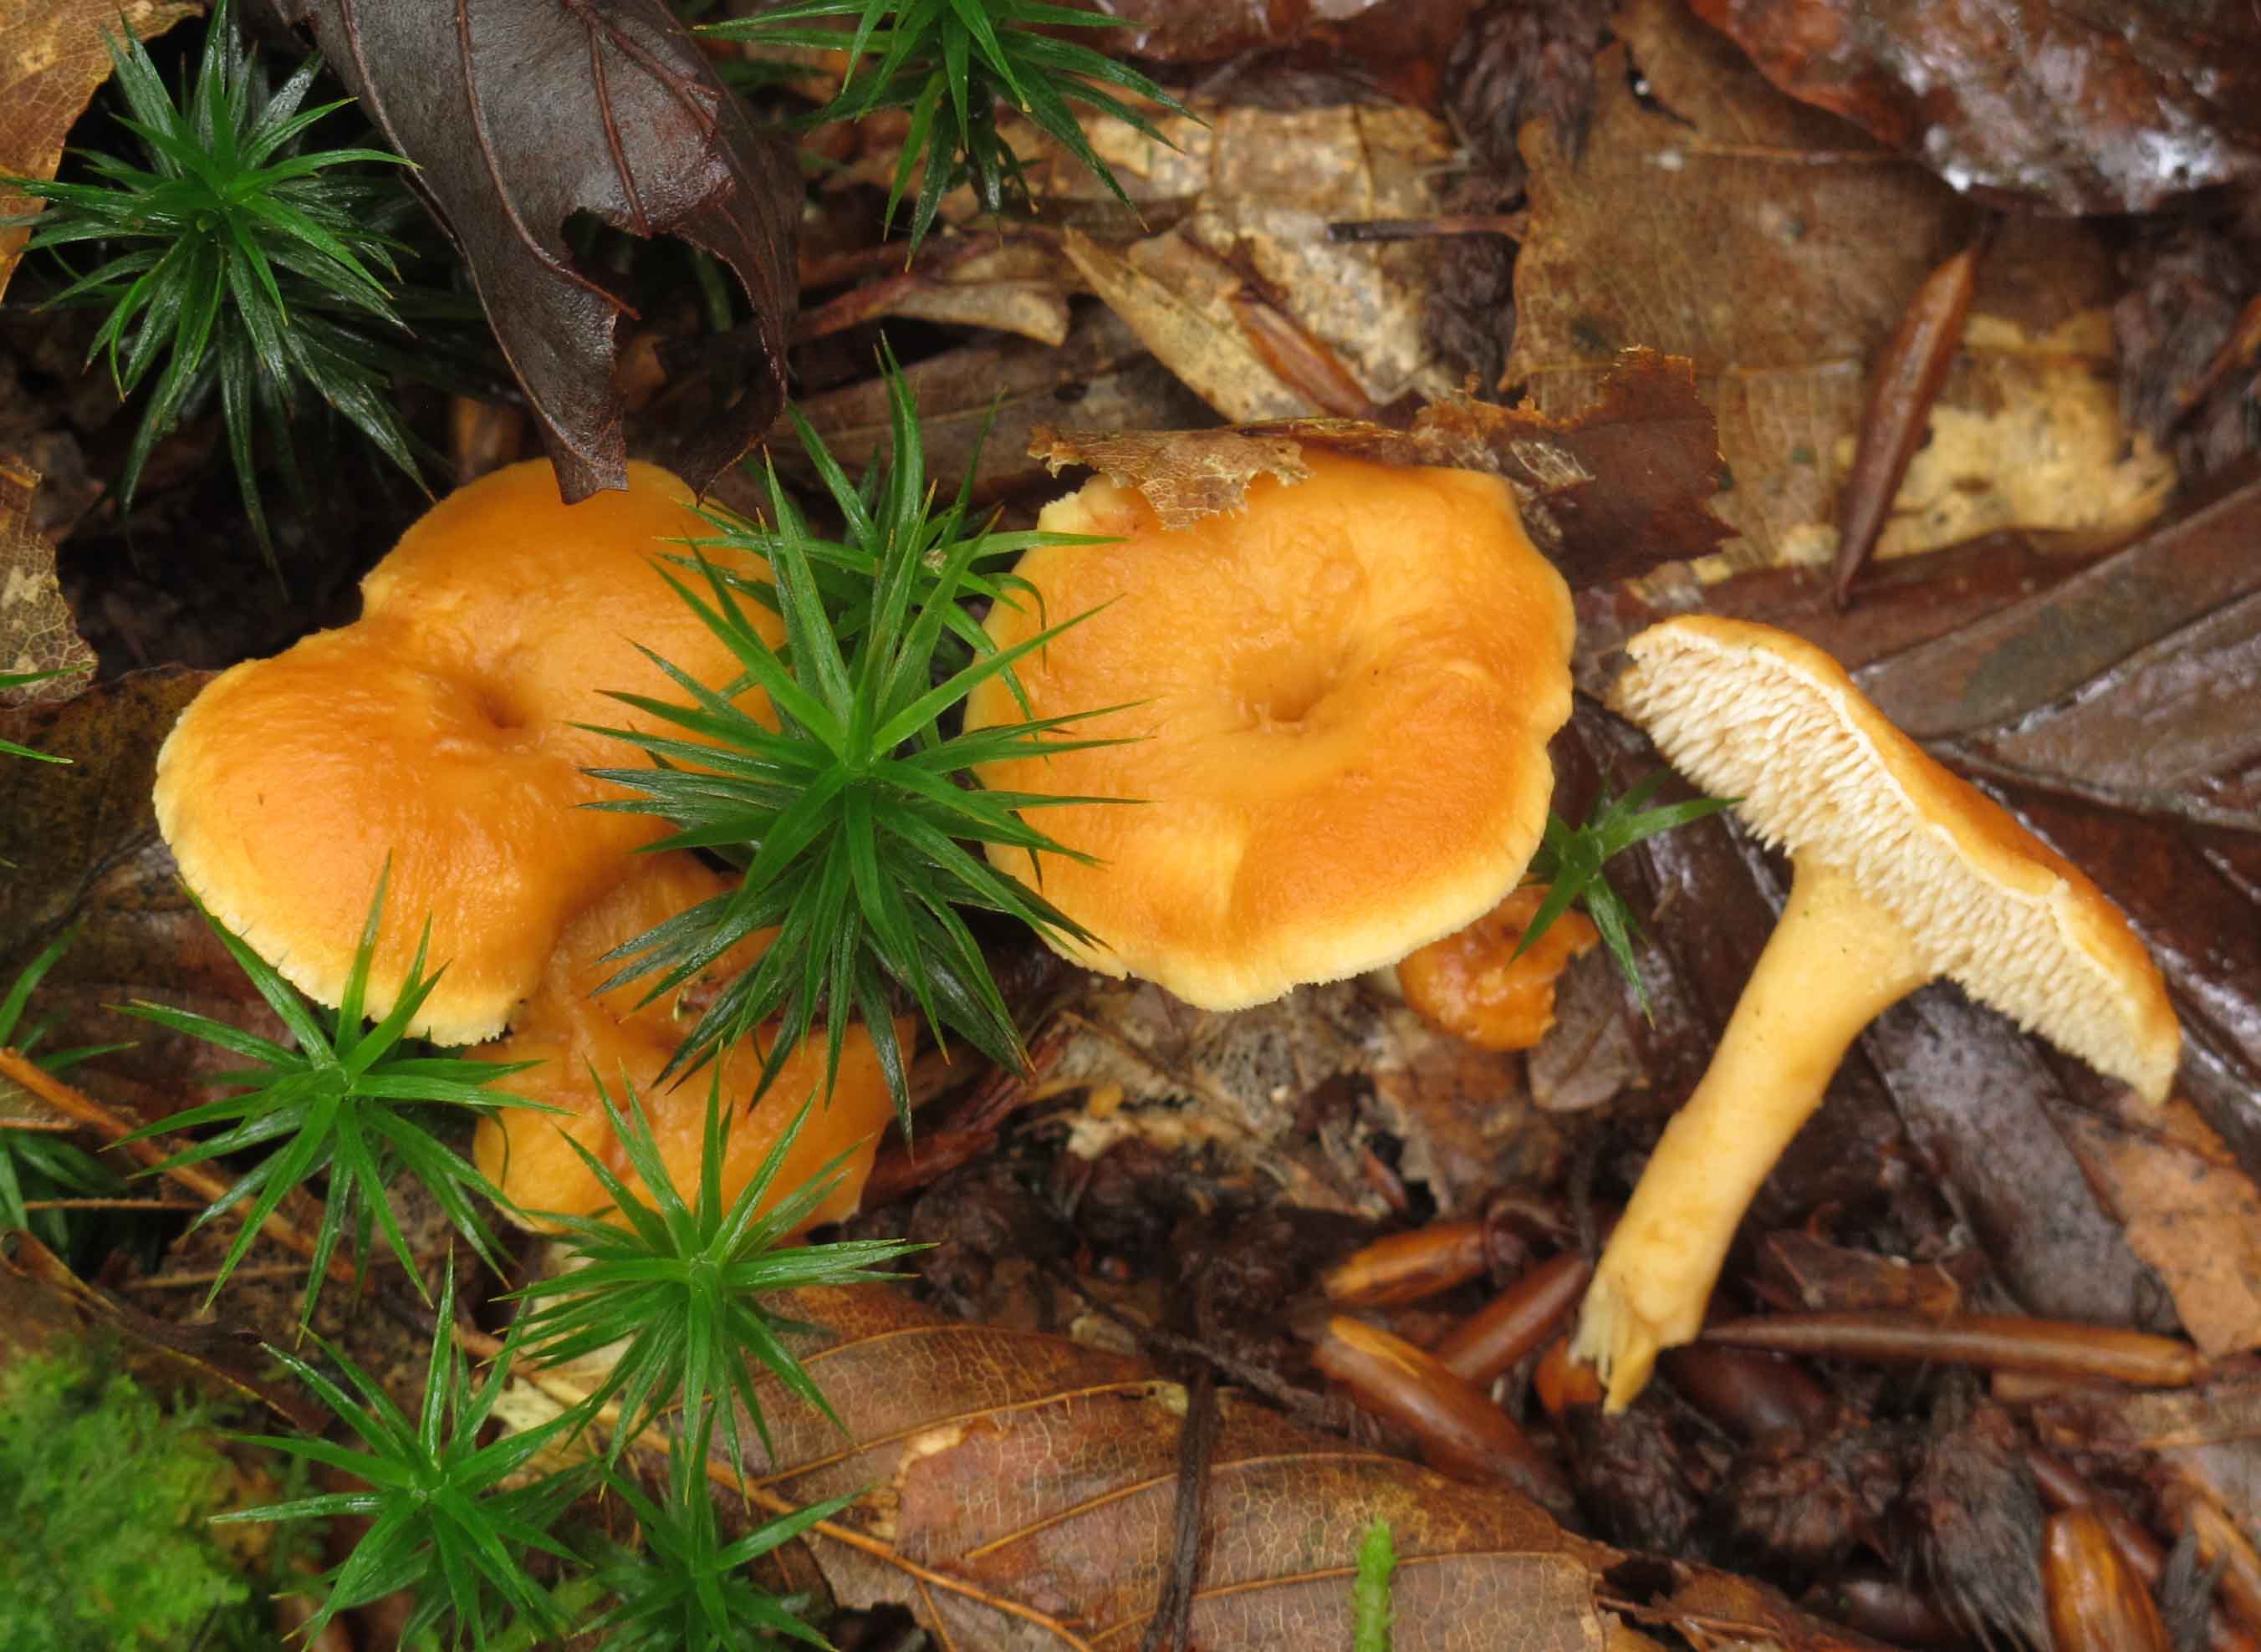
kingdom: Fungi
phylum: Basidiomycota
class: Agaricomycetes
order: Cantharellales
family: Hydnaceae
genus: Hydnum
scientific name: Hydnum umbilicatum
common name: navle-pigsvamp
